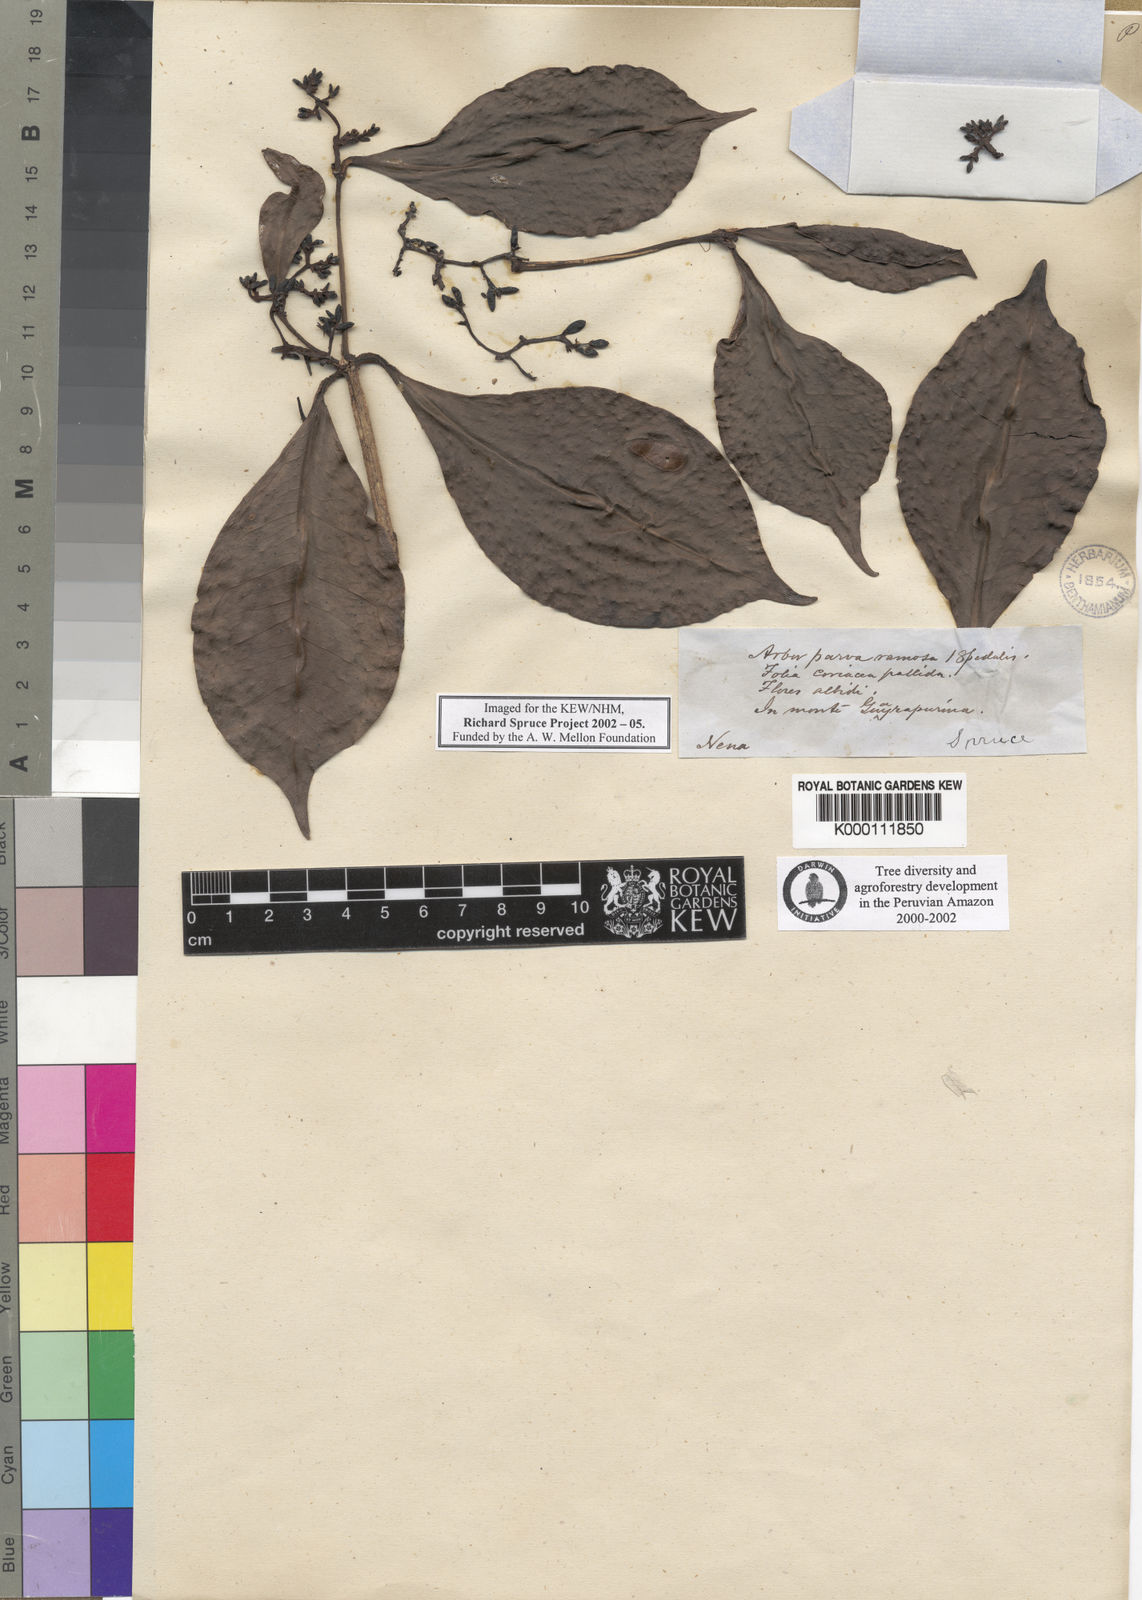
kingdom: Plantae
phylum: Tracheophyta
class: Magnoliopsida
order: Caryophyllales
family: Nyctaginaceae
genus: Neea
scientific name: Neea
